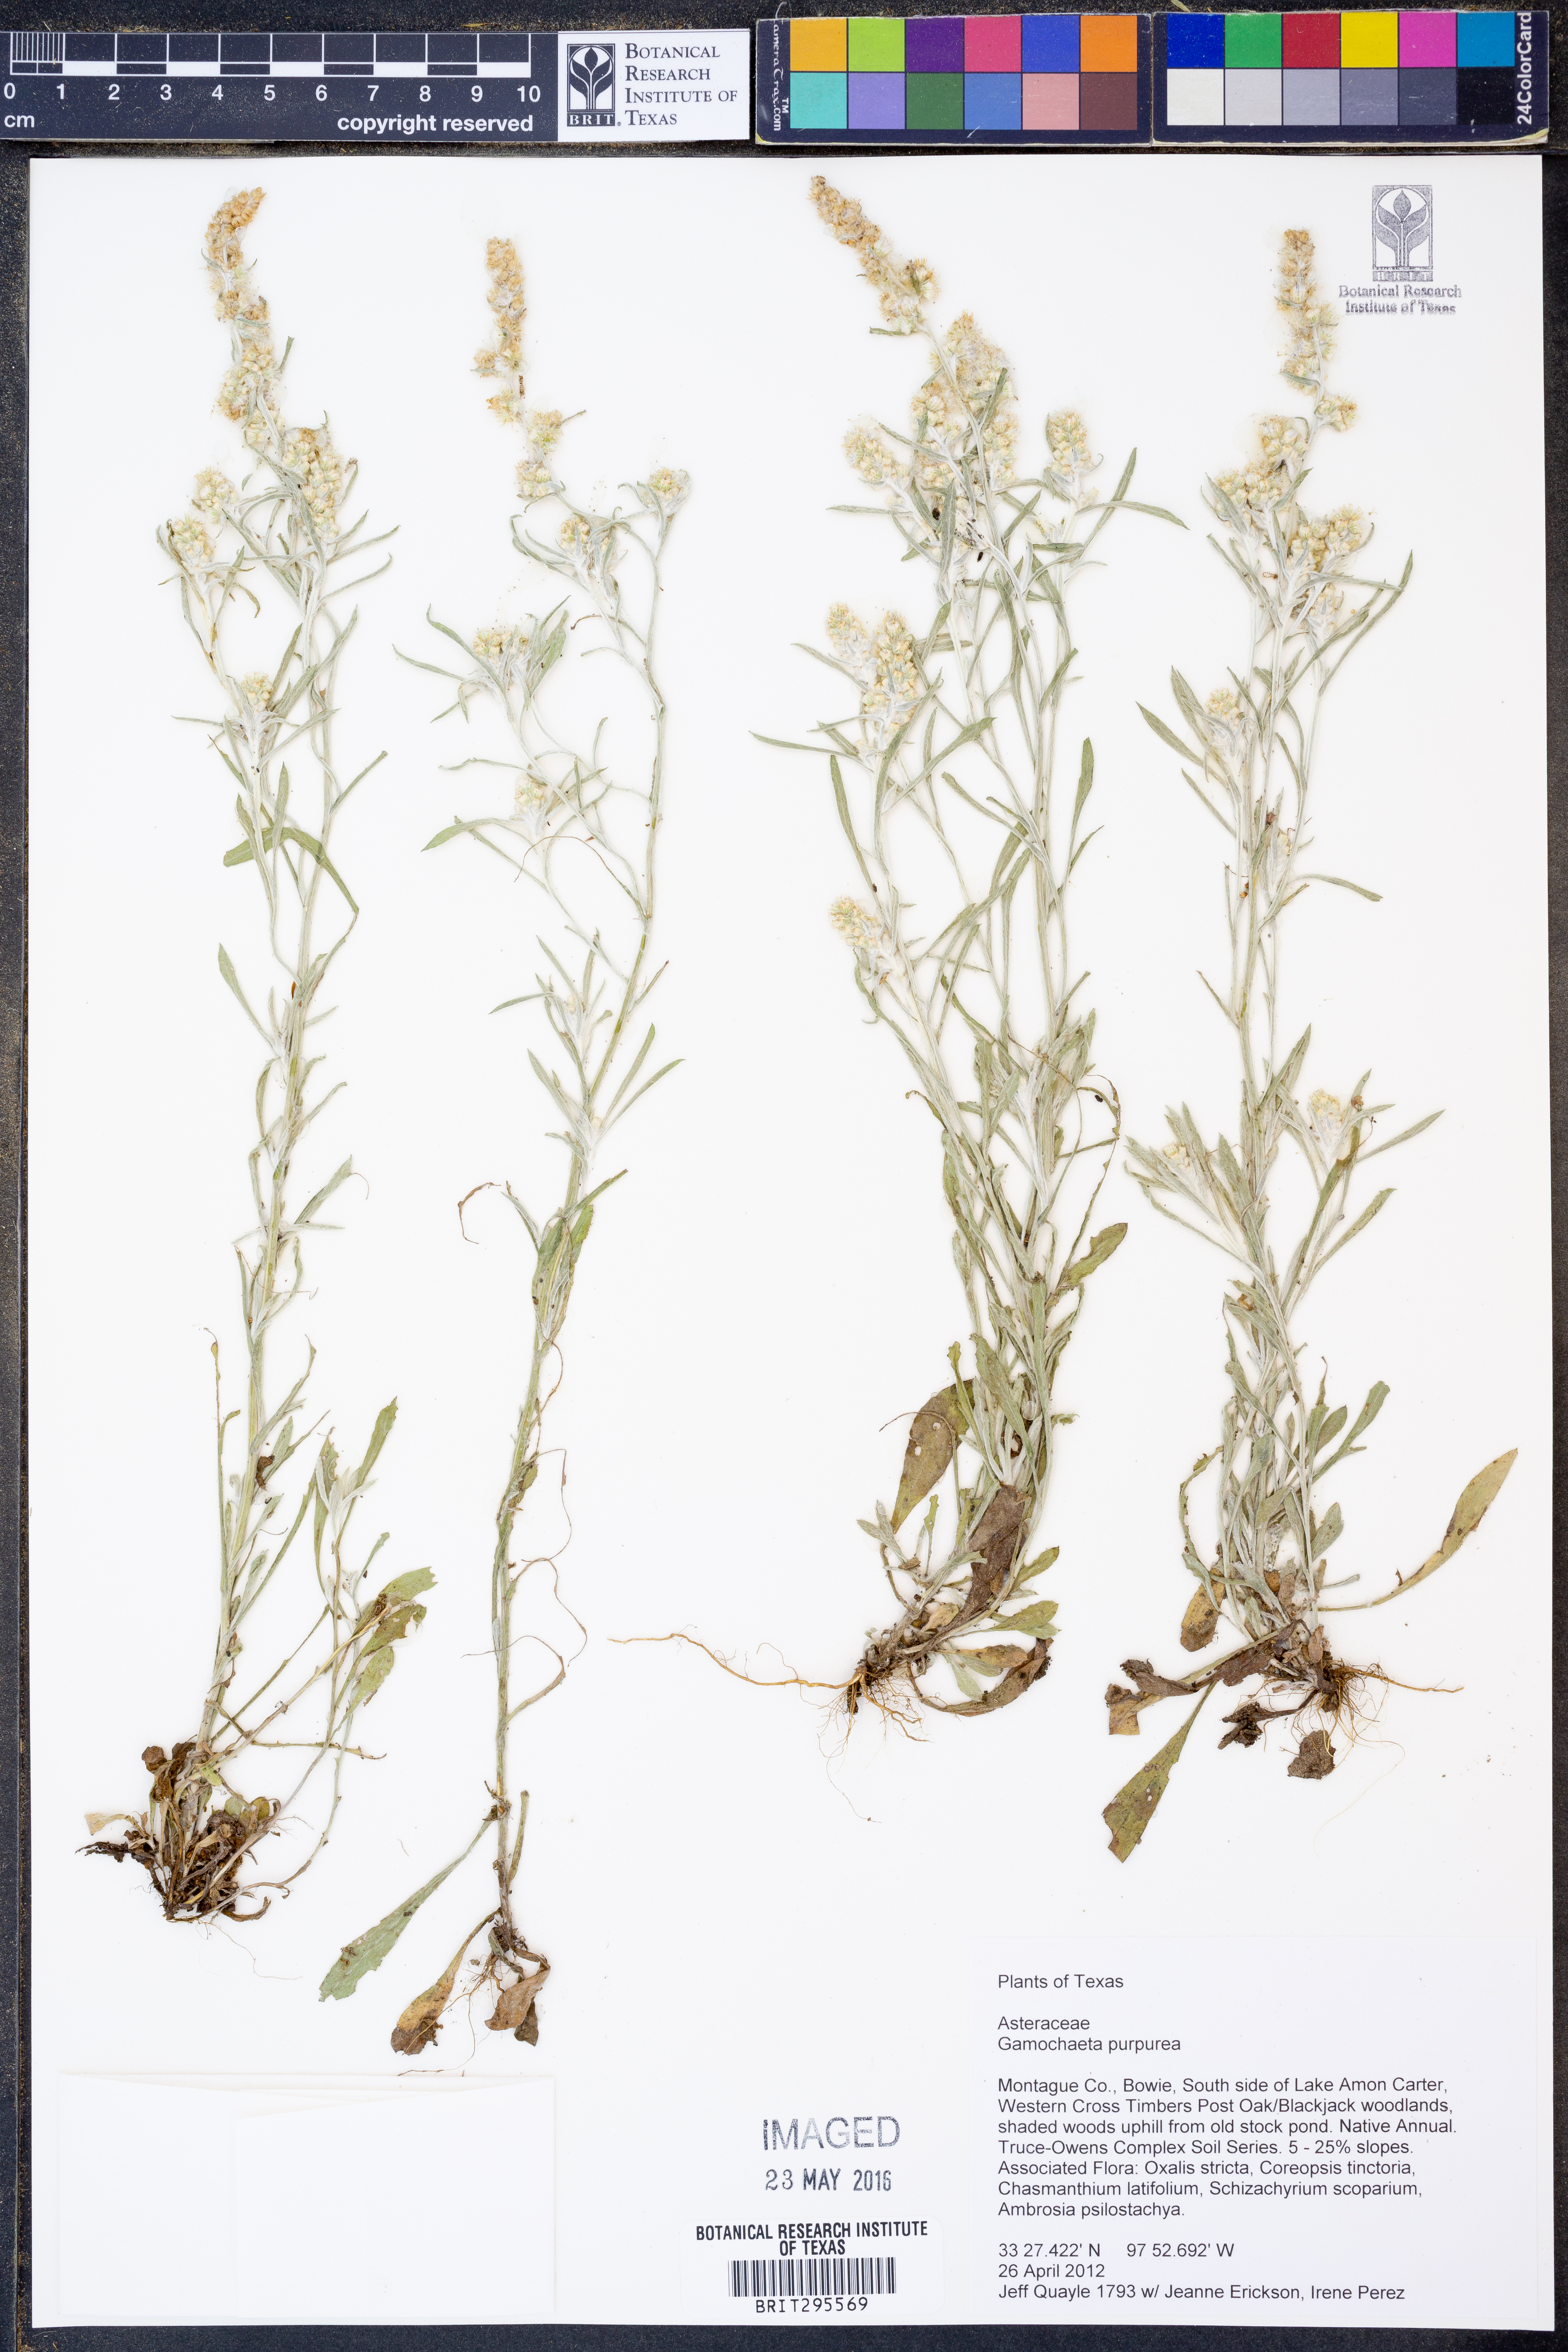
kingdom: Plantae
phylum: Tracheophyta
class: Magnoliopsida
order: Asterales
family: Asteraceae
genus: Gamochaeta
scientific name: Gamochaeta purpurea
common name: Purple cudweed
